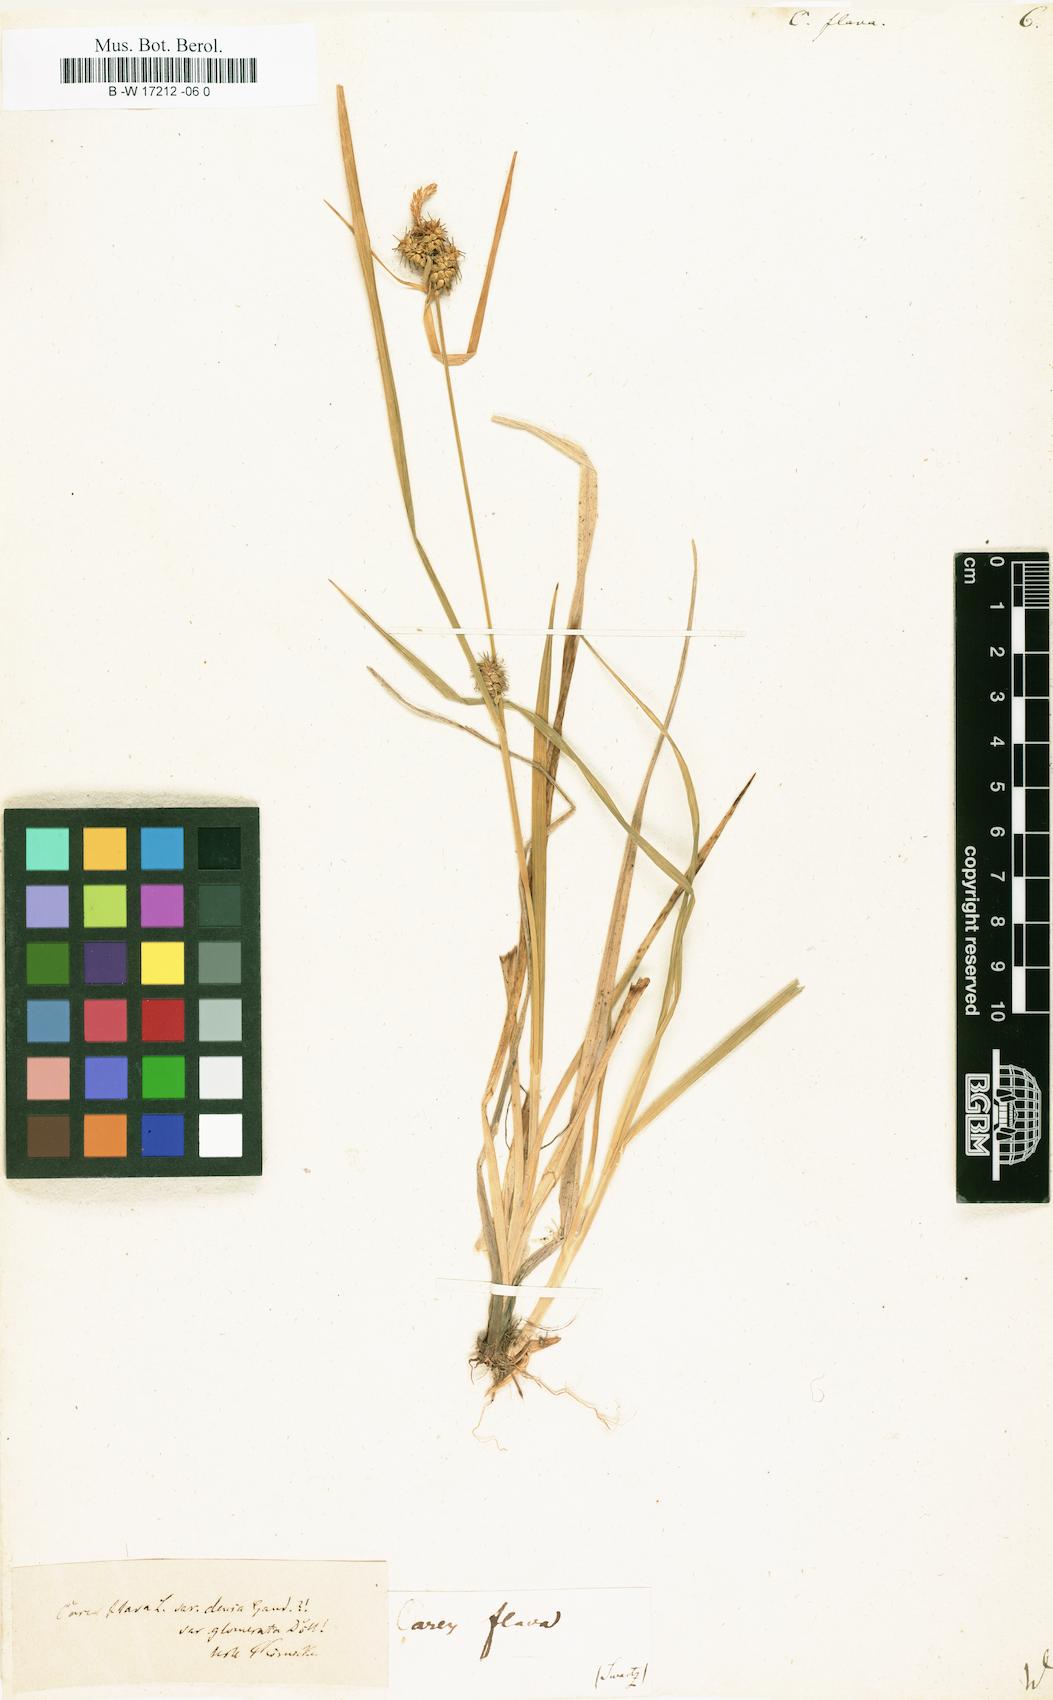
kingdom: Plantae
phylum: Tracheophyta
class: Liliopsida
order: Poales
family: Cyperaceae
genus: Carex
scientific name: Carex flava
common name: Large yellow-sedge
